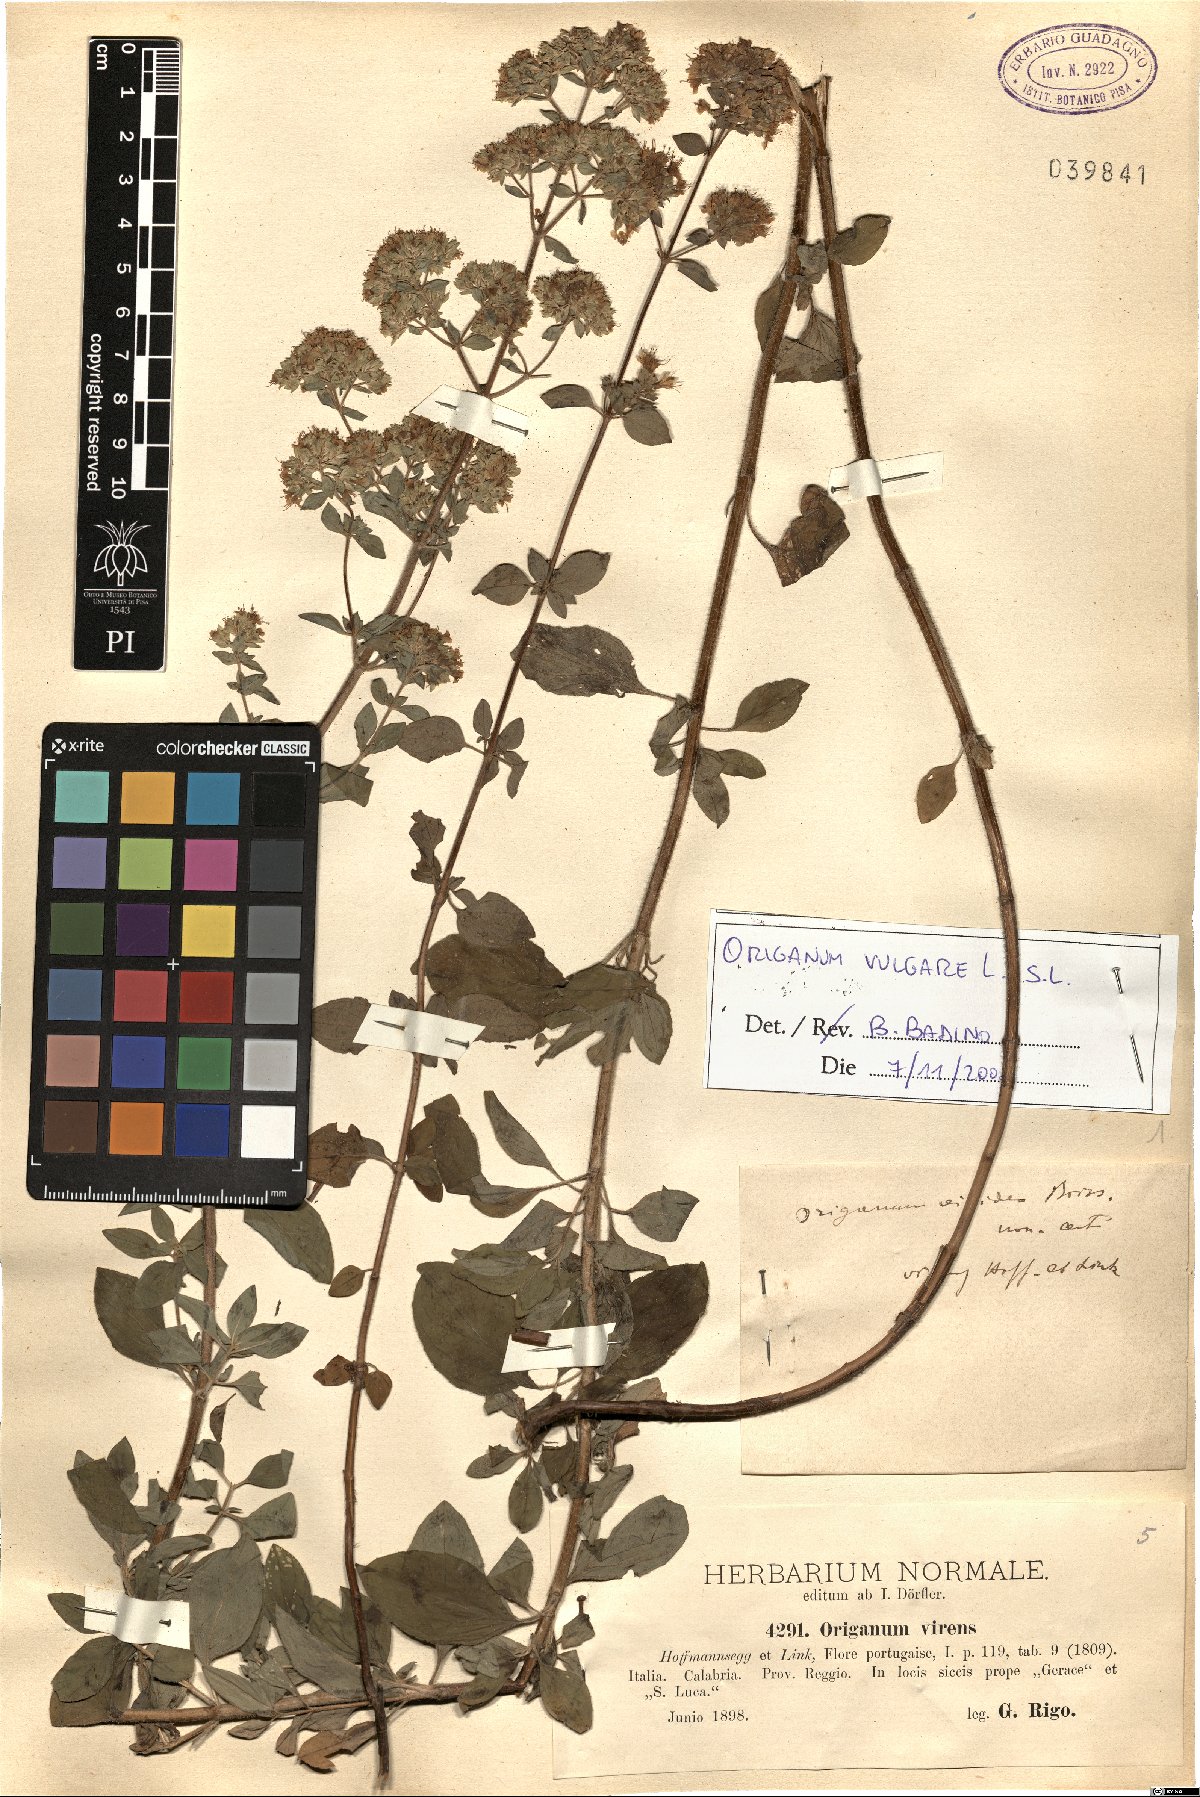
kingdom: Plantae
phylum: Tracheophyta
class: Magnoliopsida
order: Lamiales
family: Lamiaceae
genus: Origanum
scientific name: Origanum vulgare
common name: Wild marjoram
